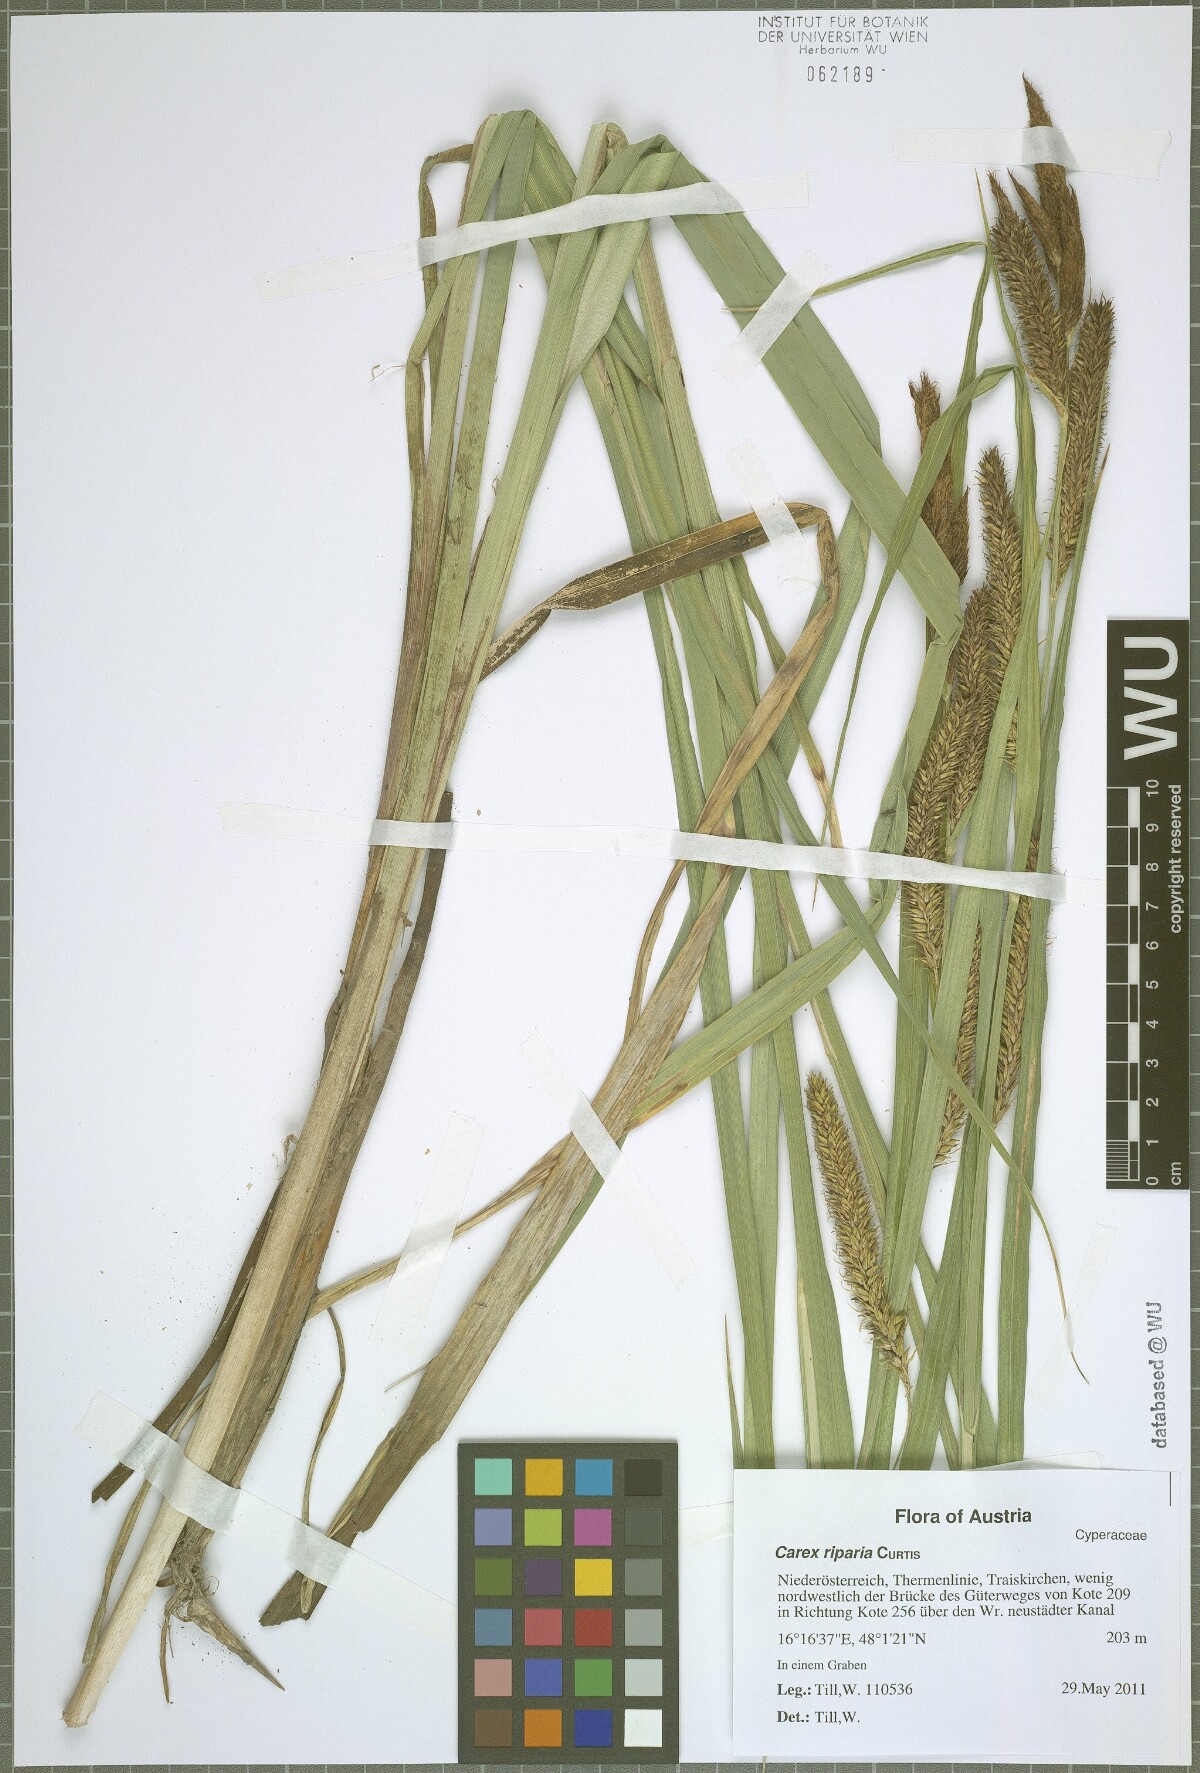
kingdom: Plantae
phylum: Tracheophyta
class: Liliopsida
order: Poales
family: Cyperaceae
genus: Carex
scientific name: Carex riparia
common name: Greater pond-sedge
